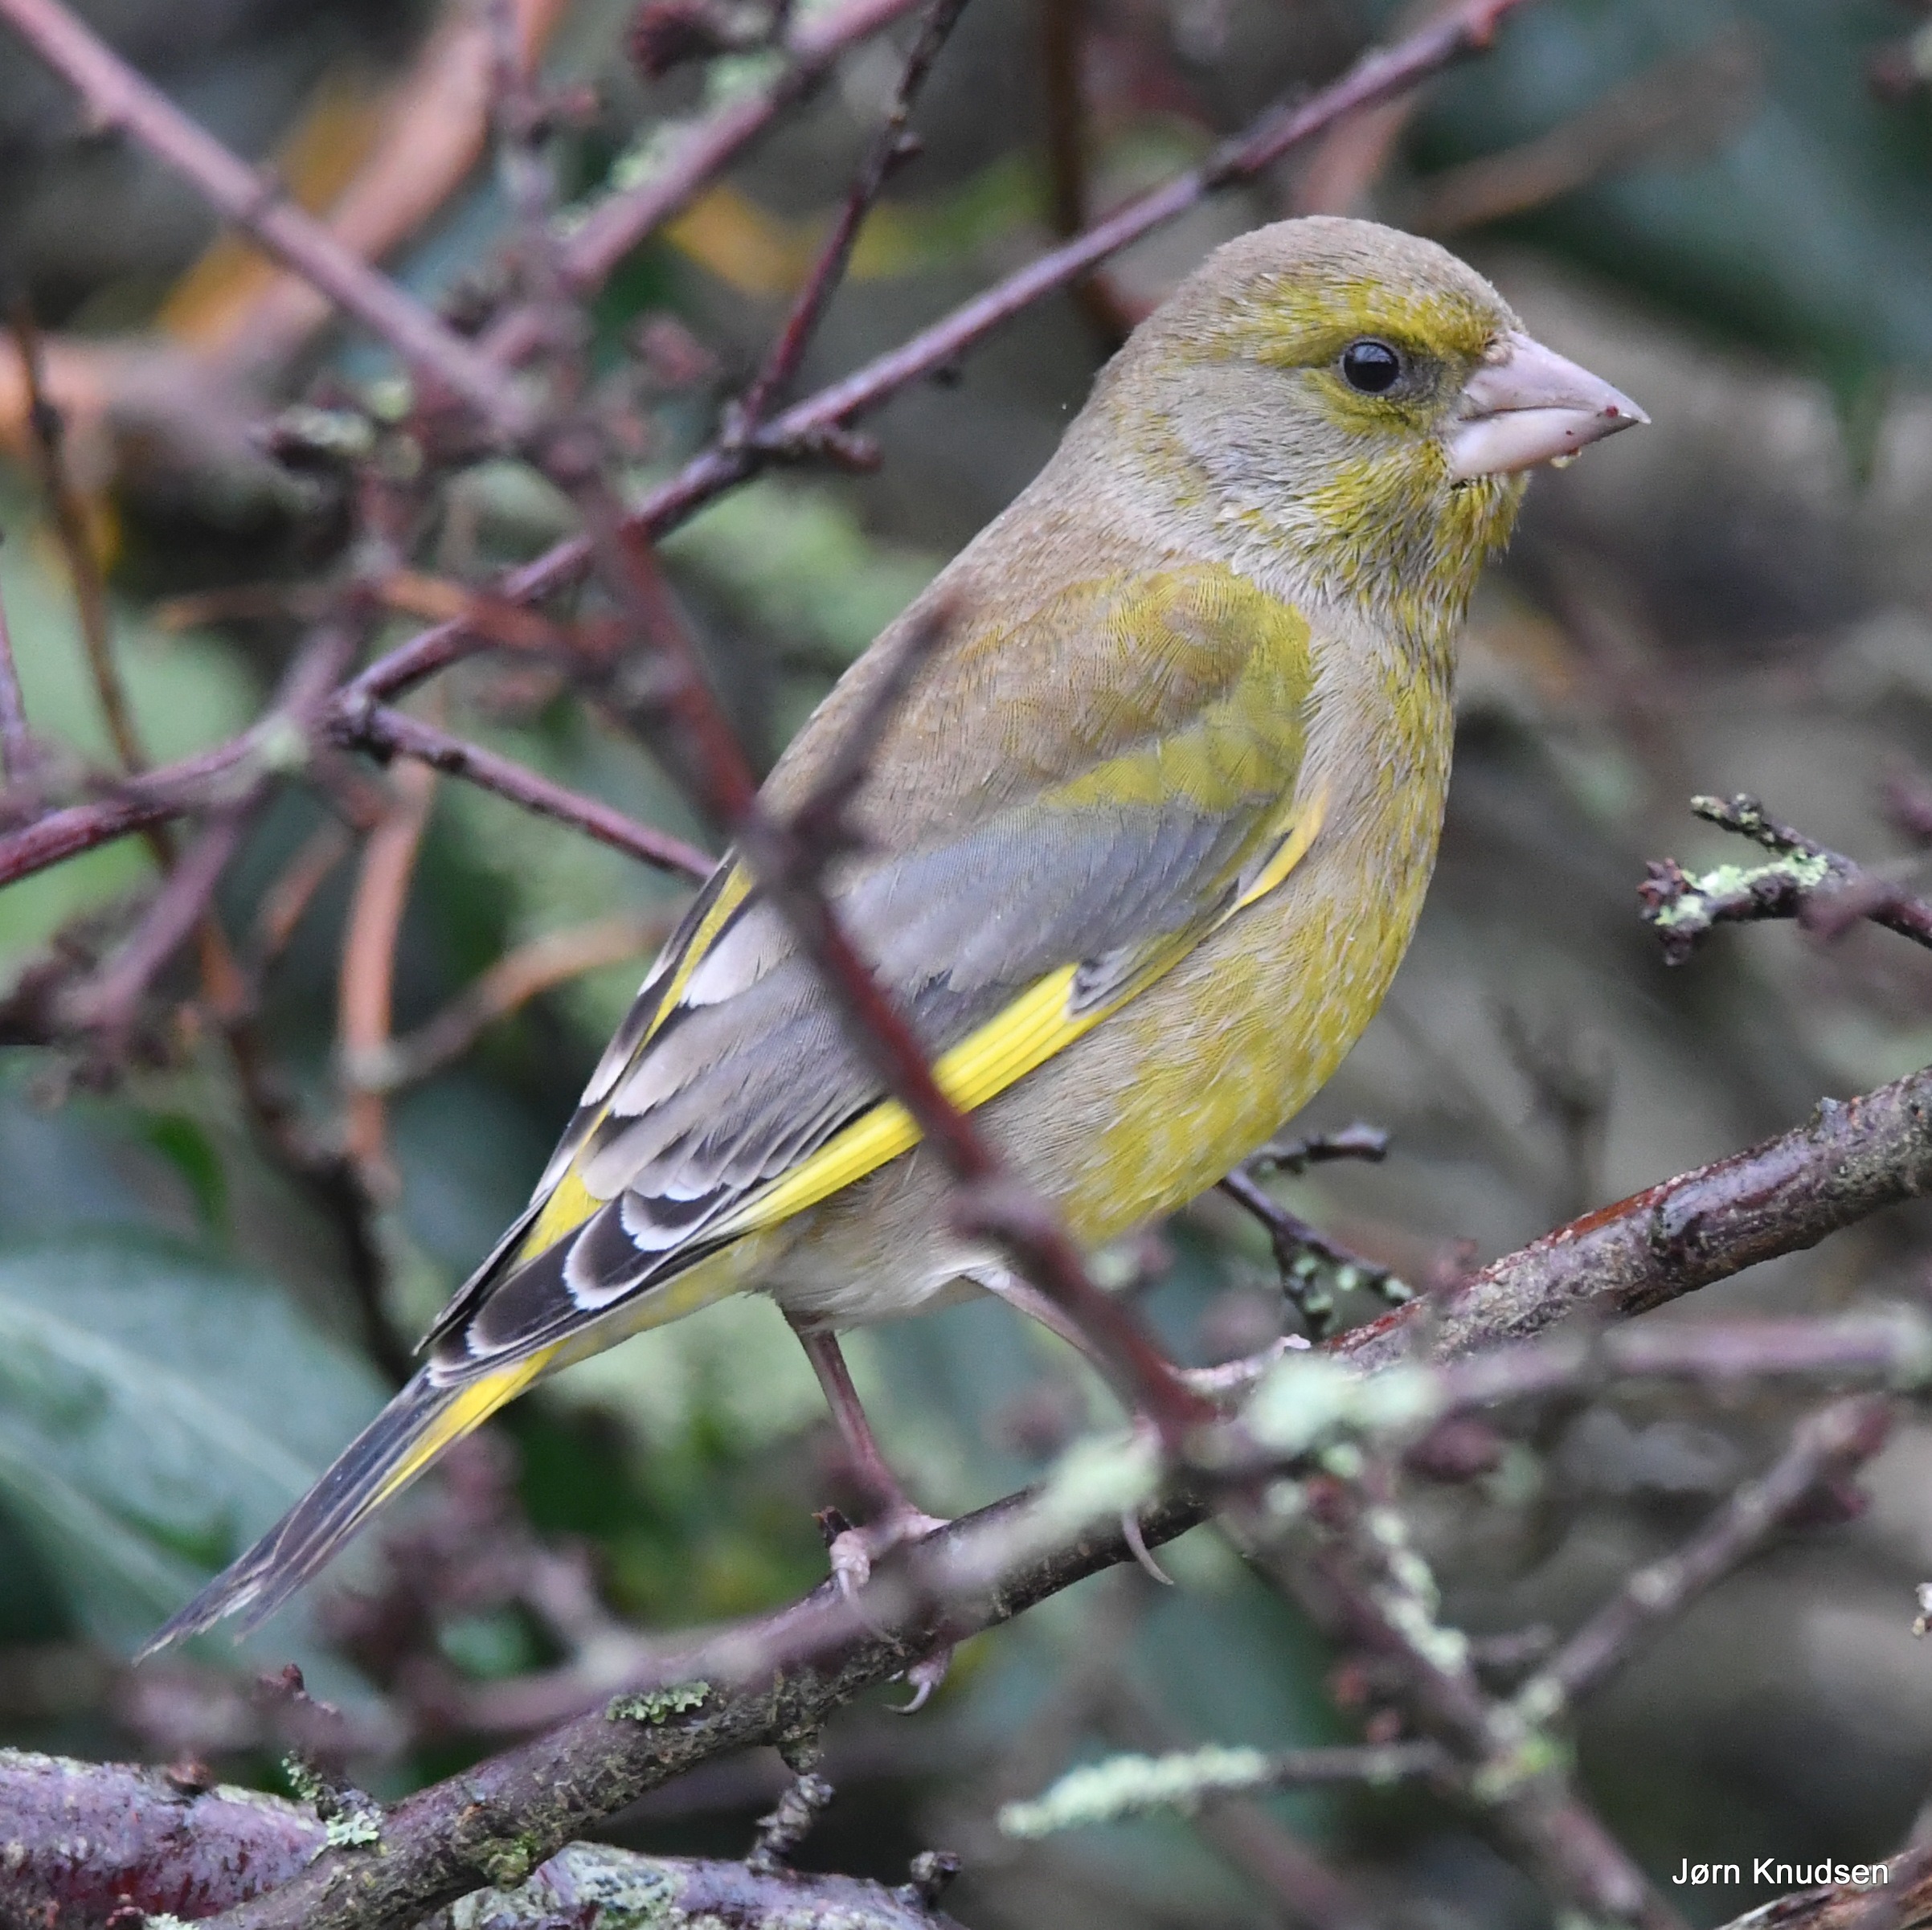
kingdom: Plantae
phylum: Tracheophyta
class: Liliopsida
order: Poales
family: Poaceae
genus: Chloris
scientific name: Chloris chloris
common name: Grønirisk
